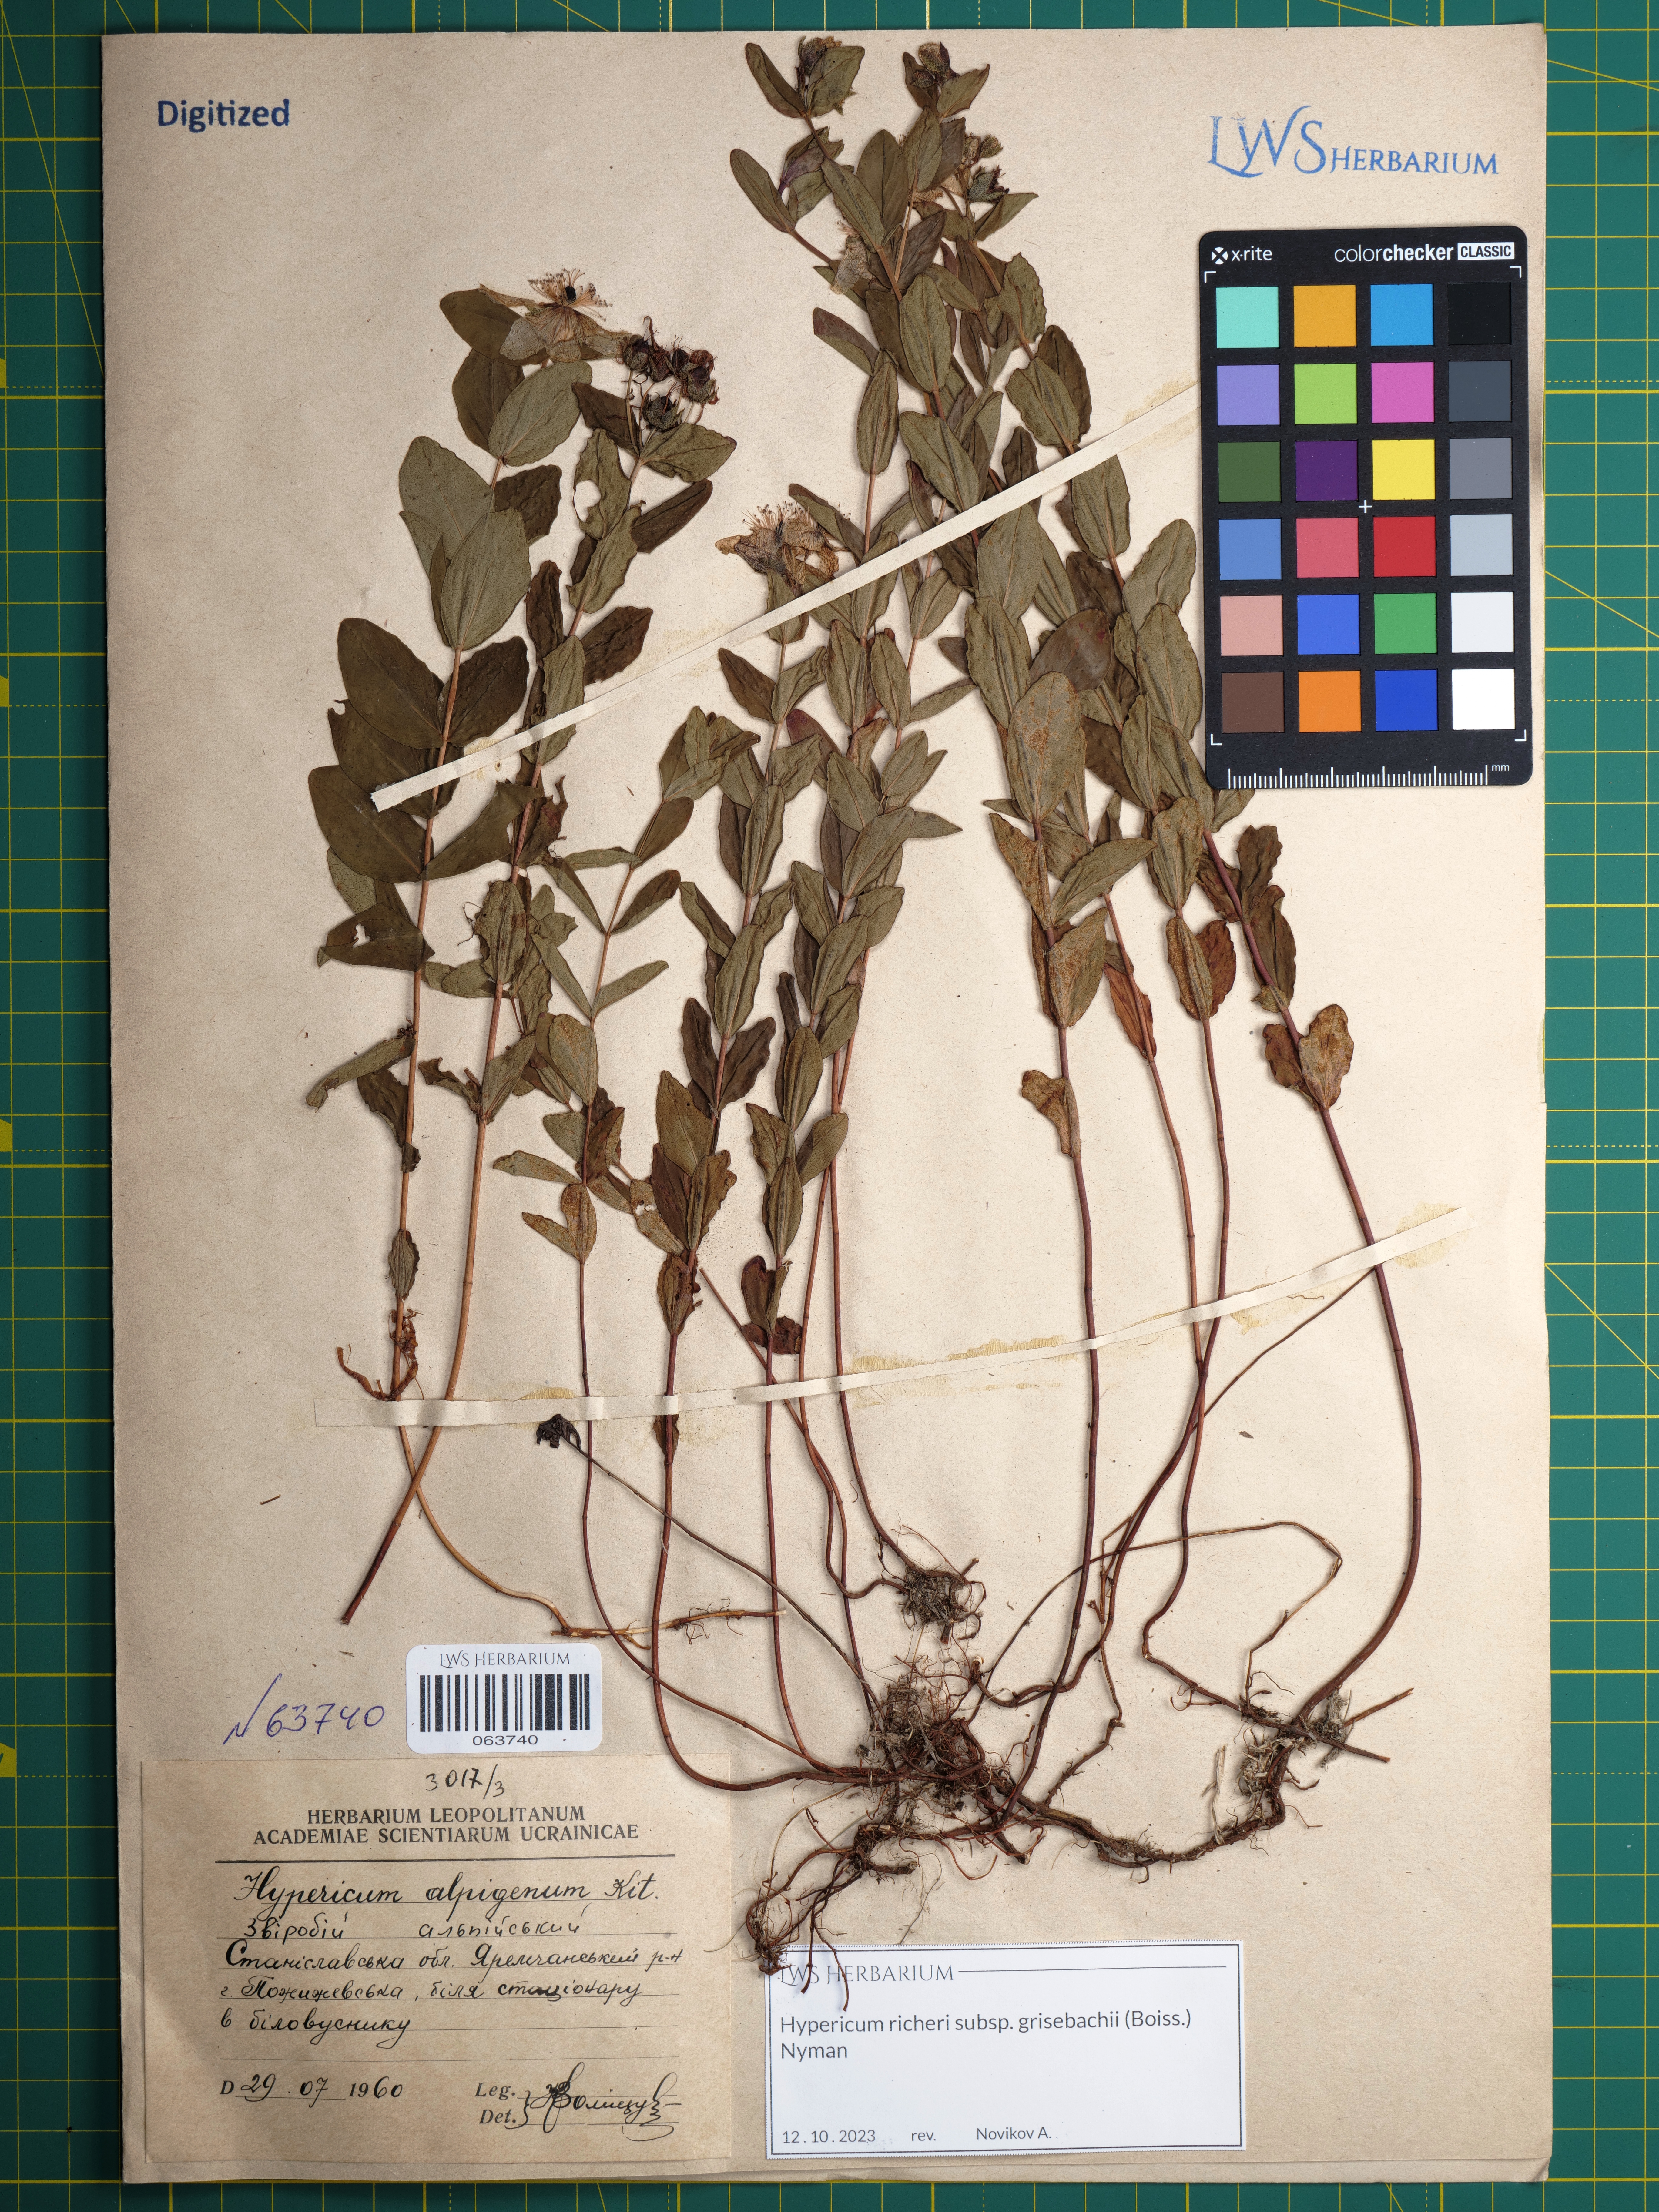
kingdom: Plantae
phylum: Tracheophyta
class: Magnoliopsida
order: Malpighiales
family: Hypericaceae
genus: Hypericum
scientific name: Hypericum richeri
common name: Alpine st john's-wort
